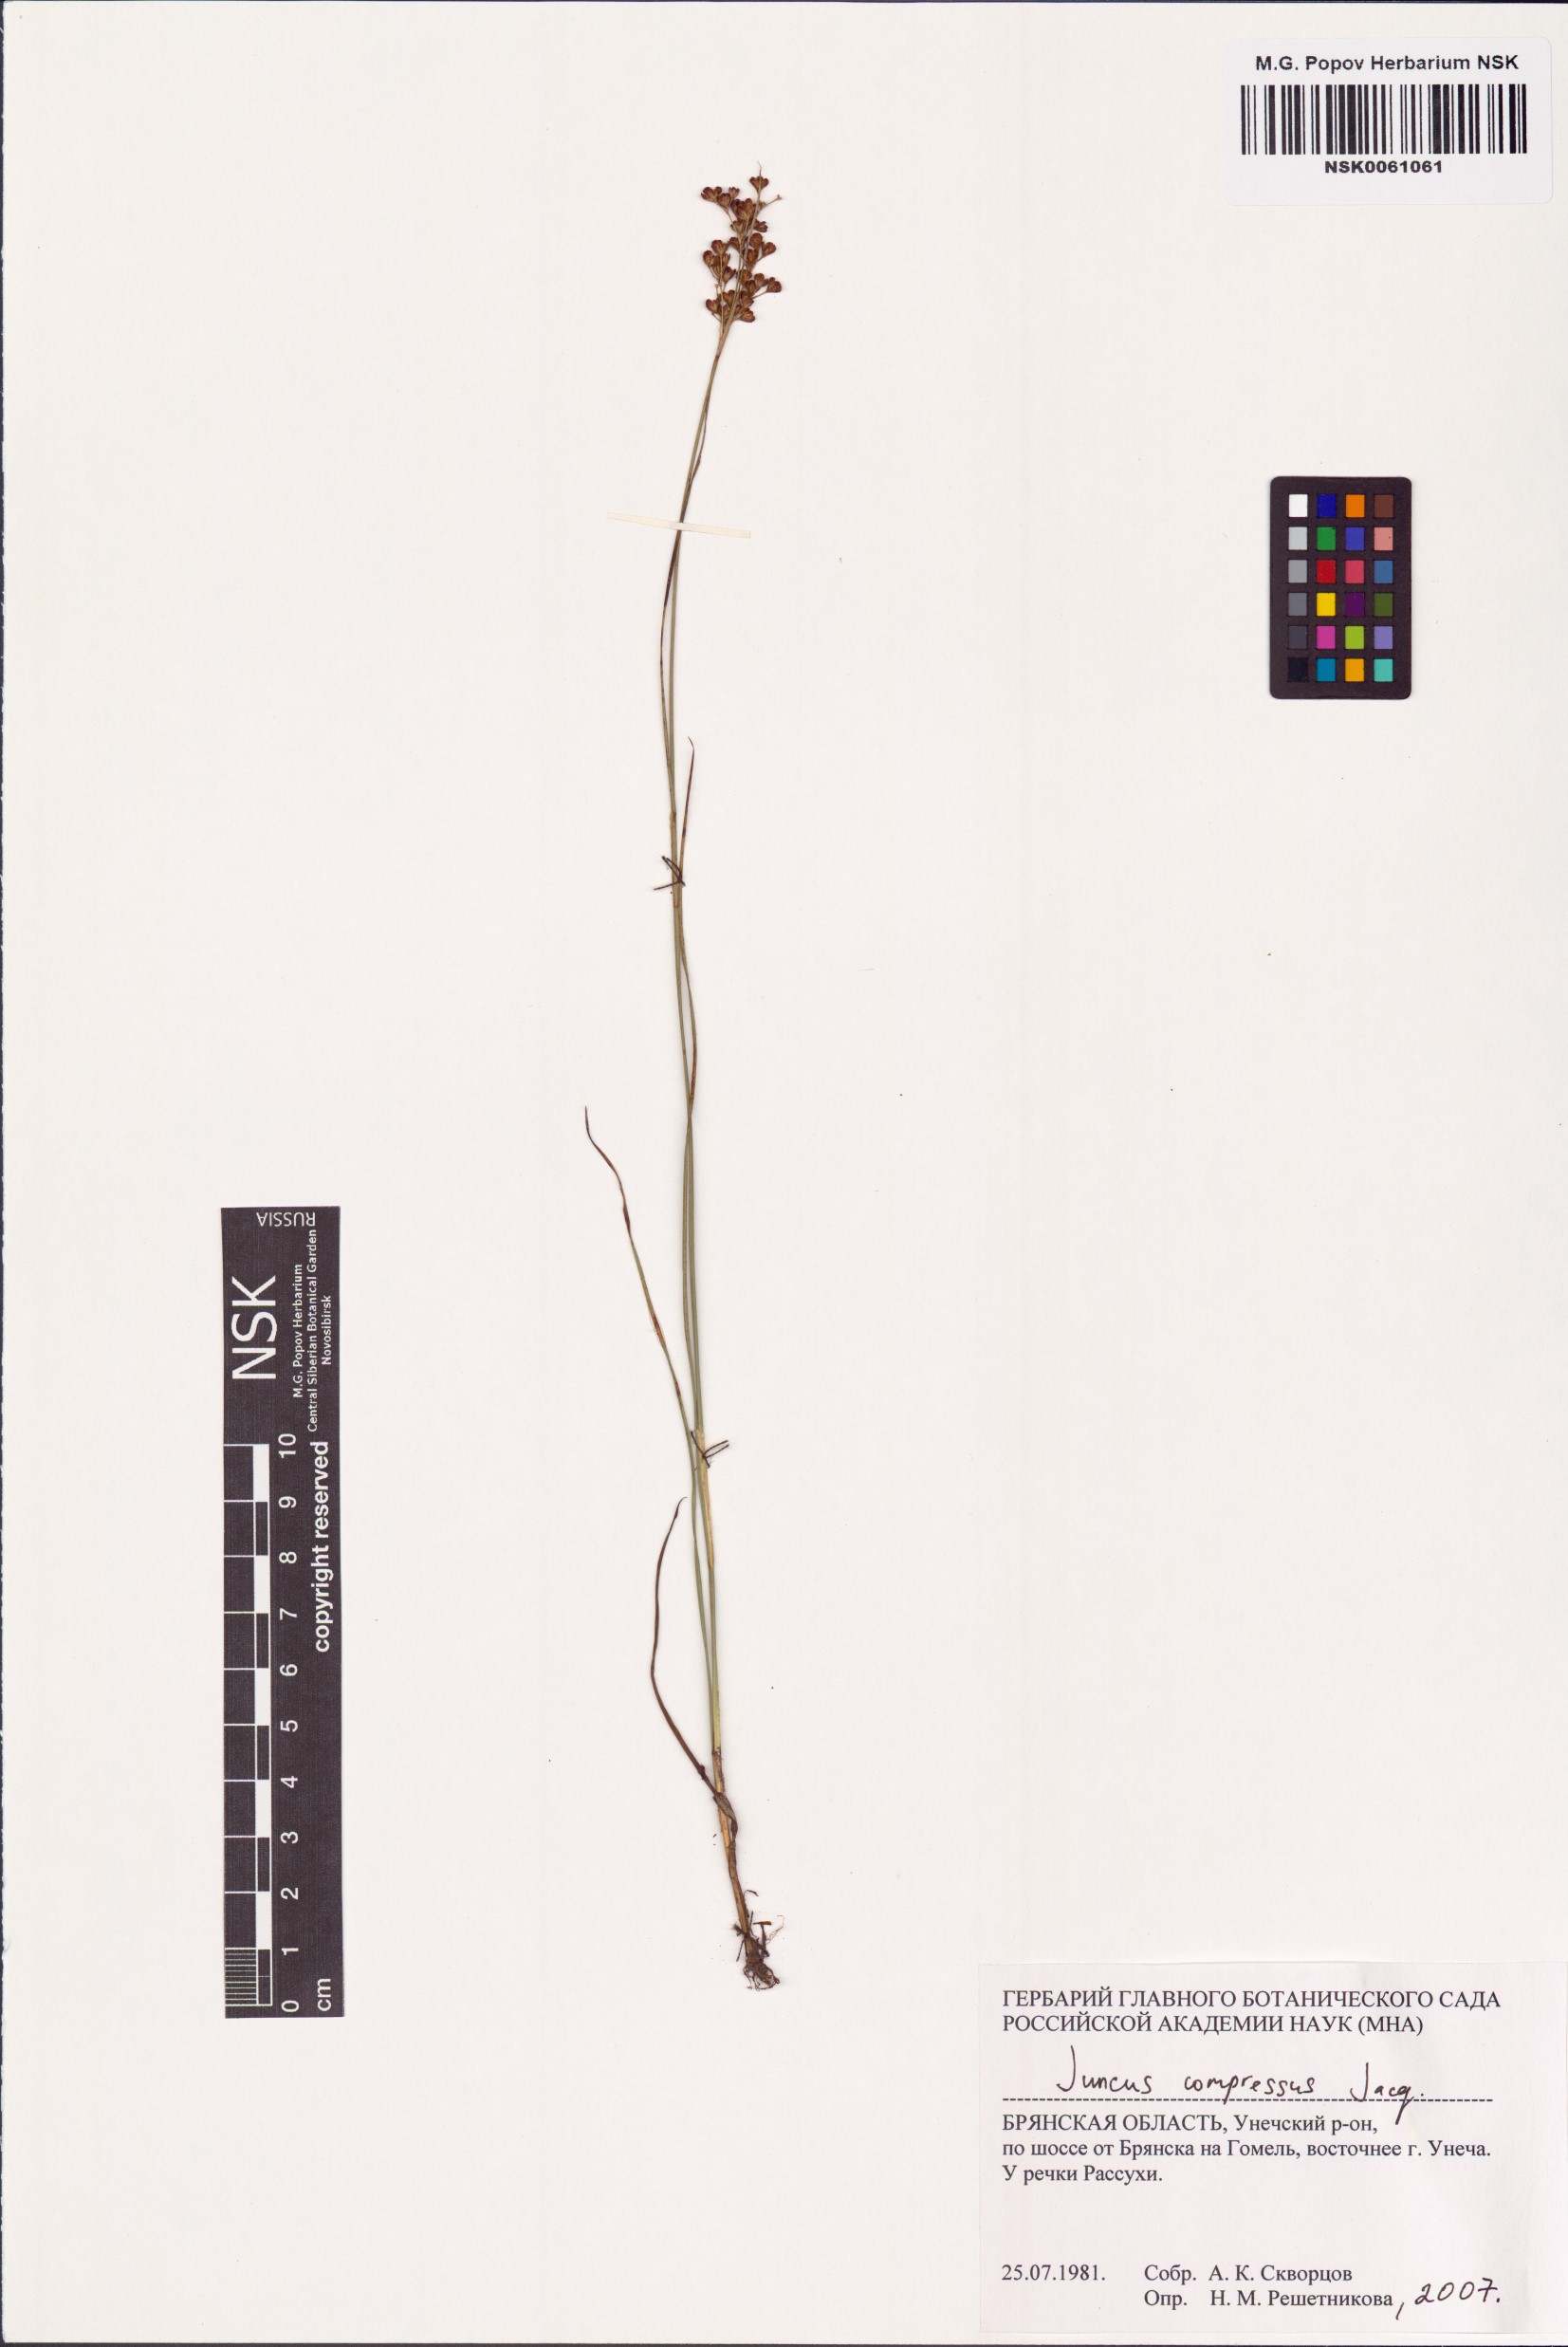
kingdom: Plantae
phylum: Tracheophyta
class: Liliopsida
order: Poales
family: Juncaceae
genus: Juncus
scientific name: Juncus compressus
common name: Round-fruited rush
